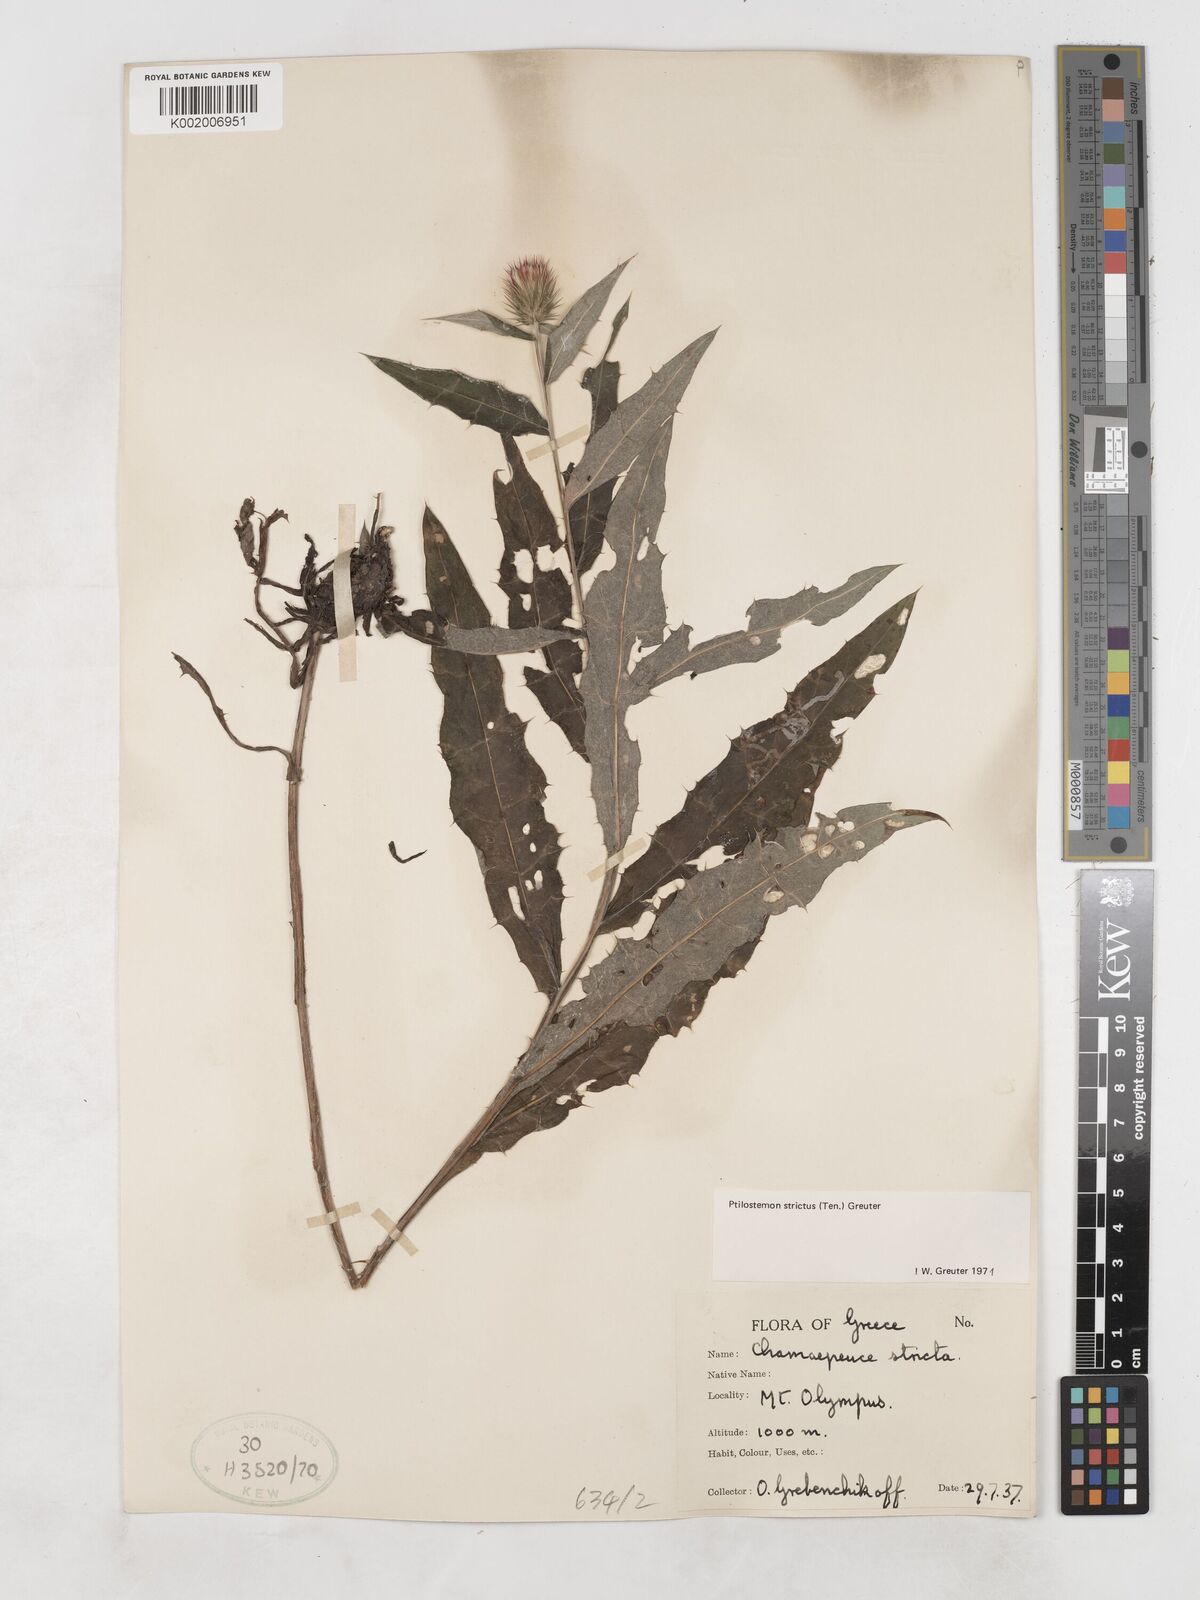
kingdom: Plantae
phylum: Tracheophyta
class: Magnoliopsida
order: Asterales
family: Asteraceae
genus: Ptilostemon
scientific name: Ptilostemon strictus
